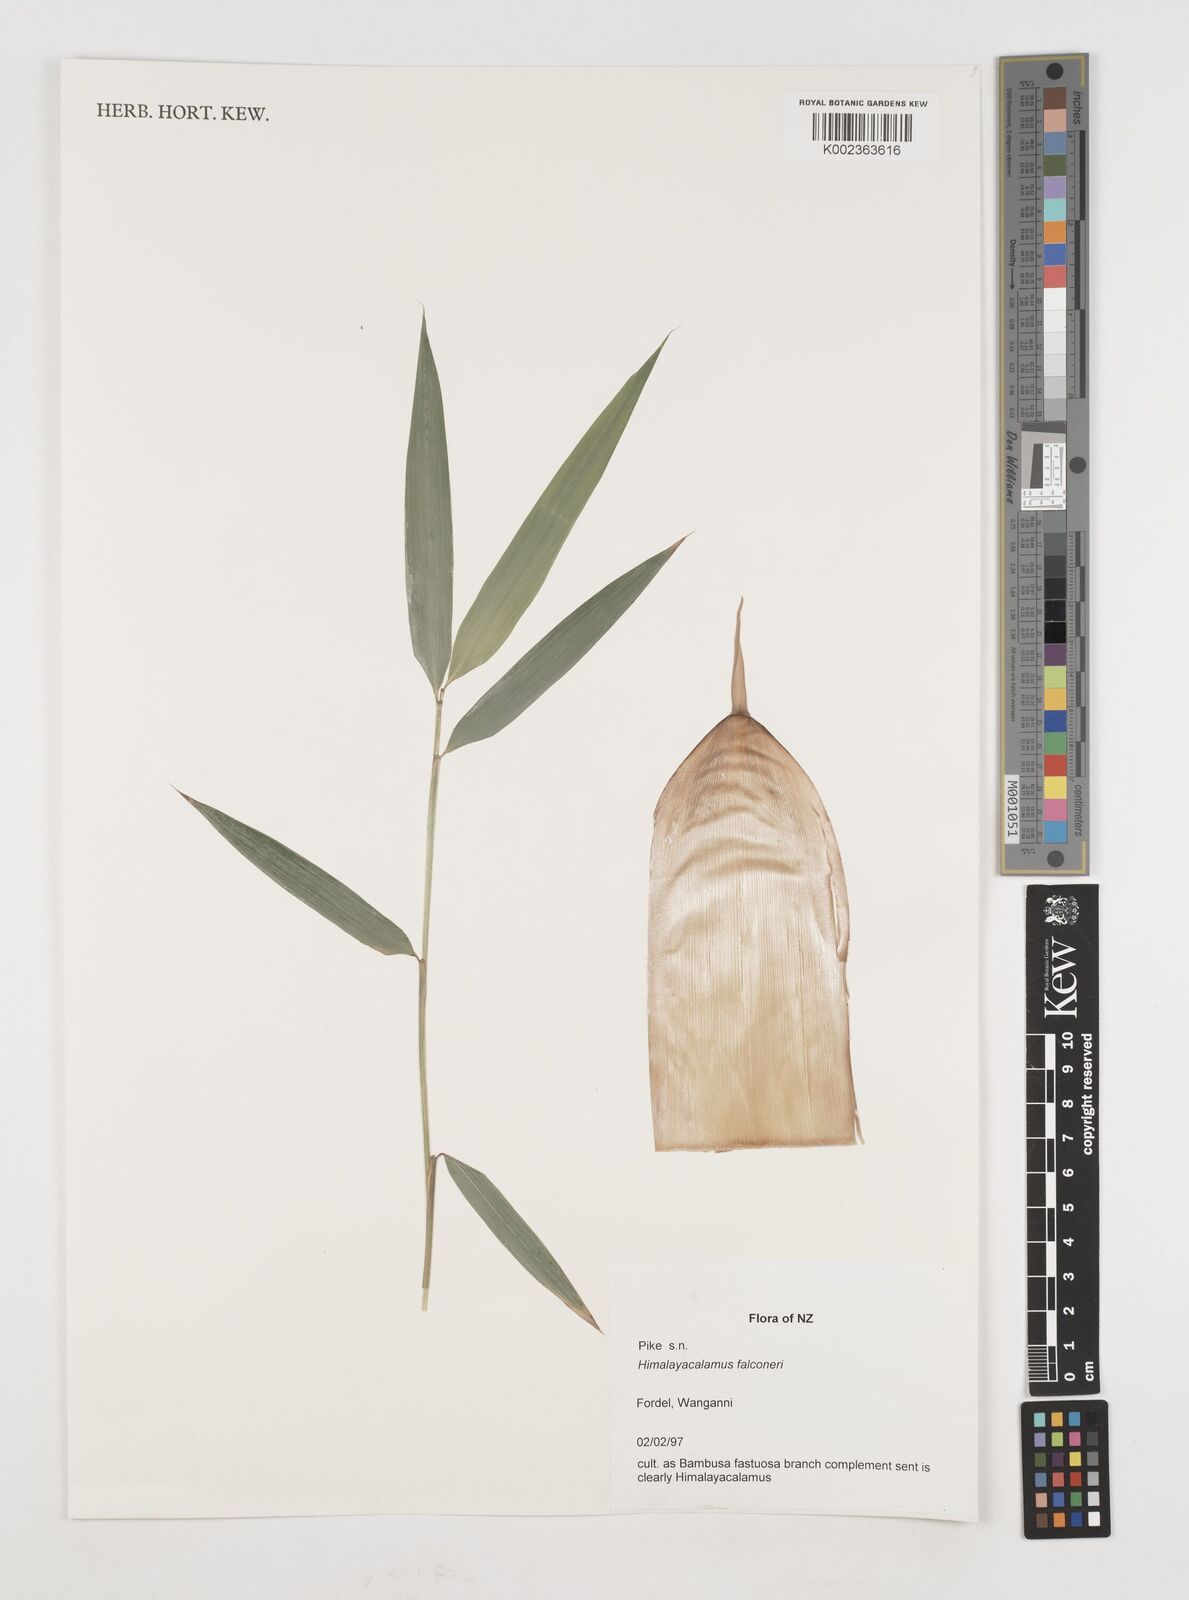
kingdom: Plantae
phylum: Tracheophyta
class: Liliopsida
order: Poales
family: Poaceae
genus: Himalayacalamus
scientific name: Himalayacalamus falconeri
